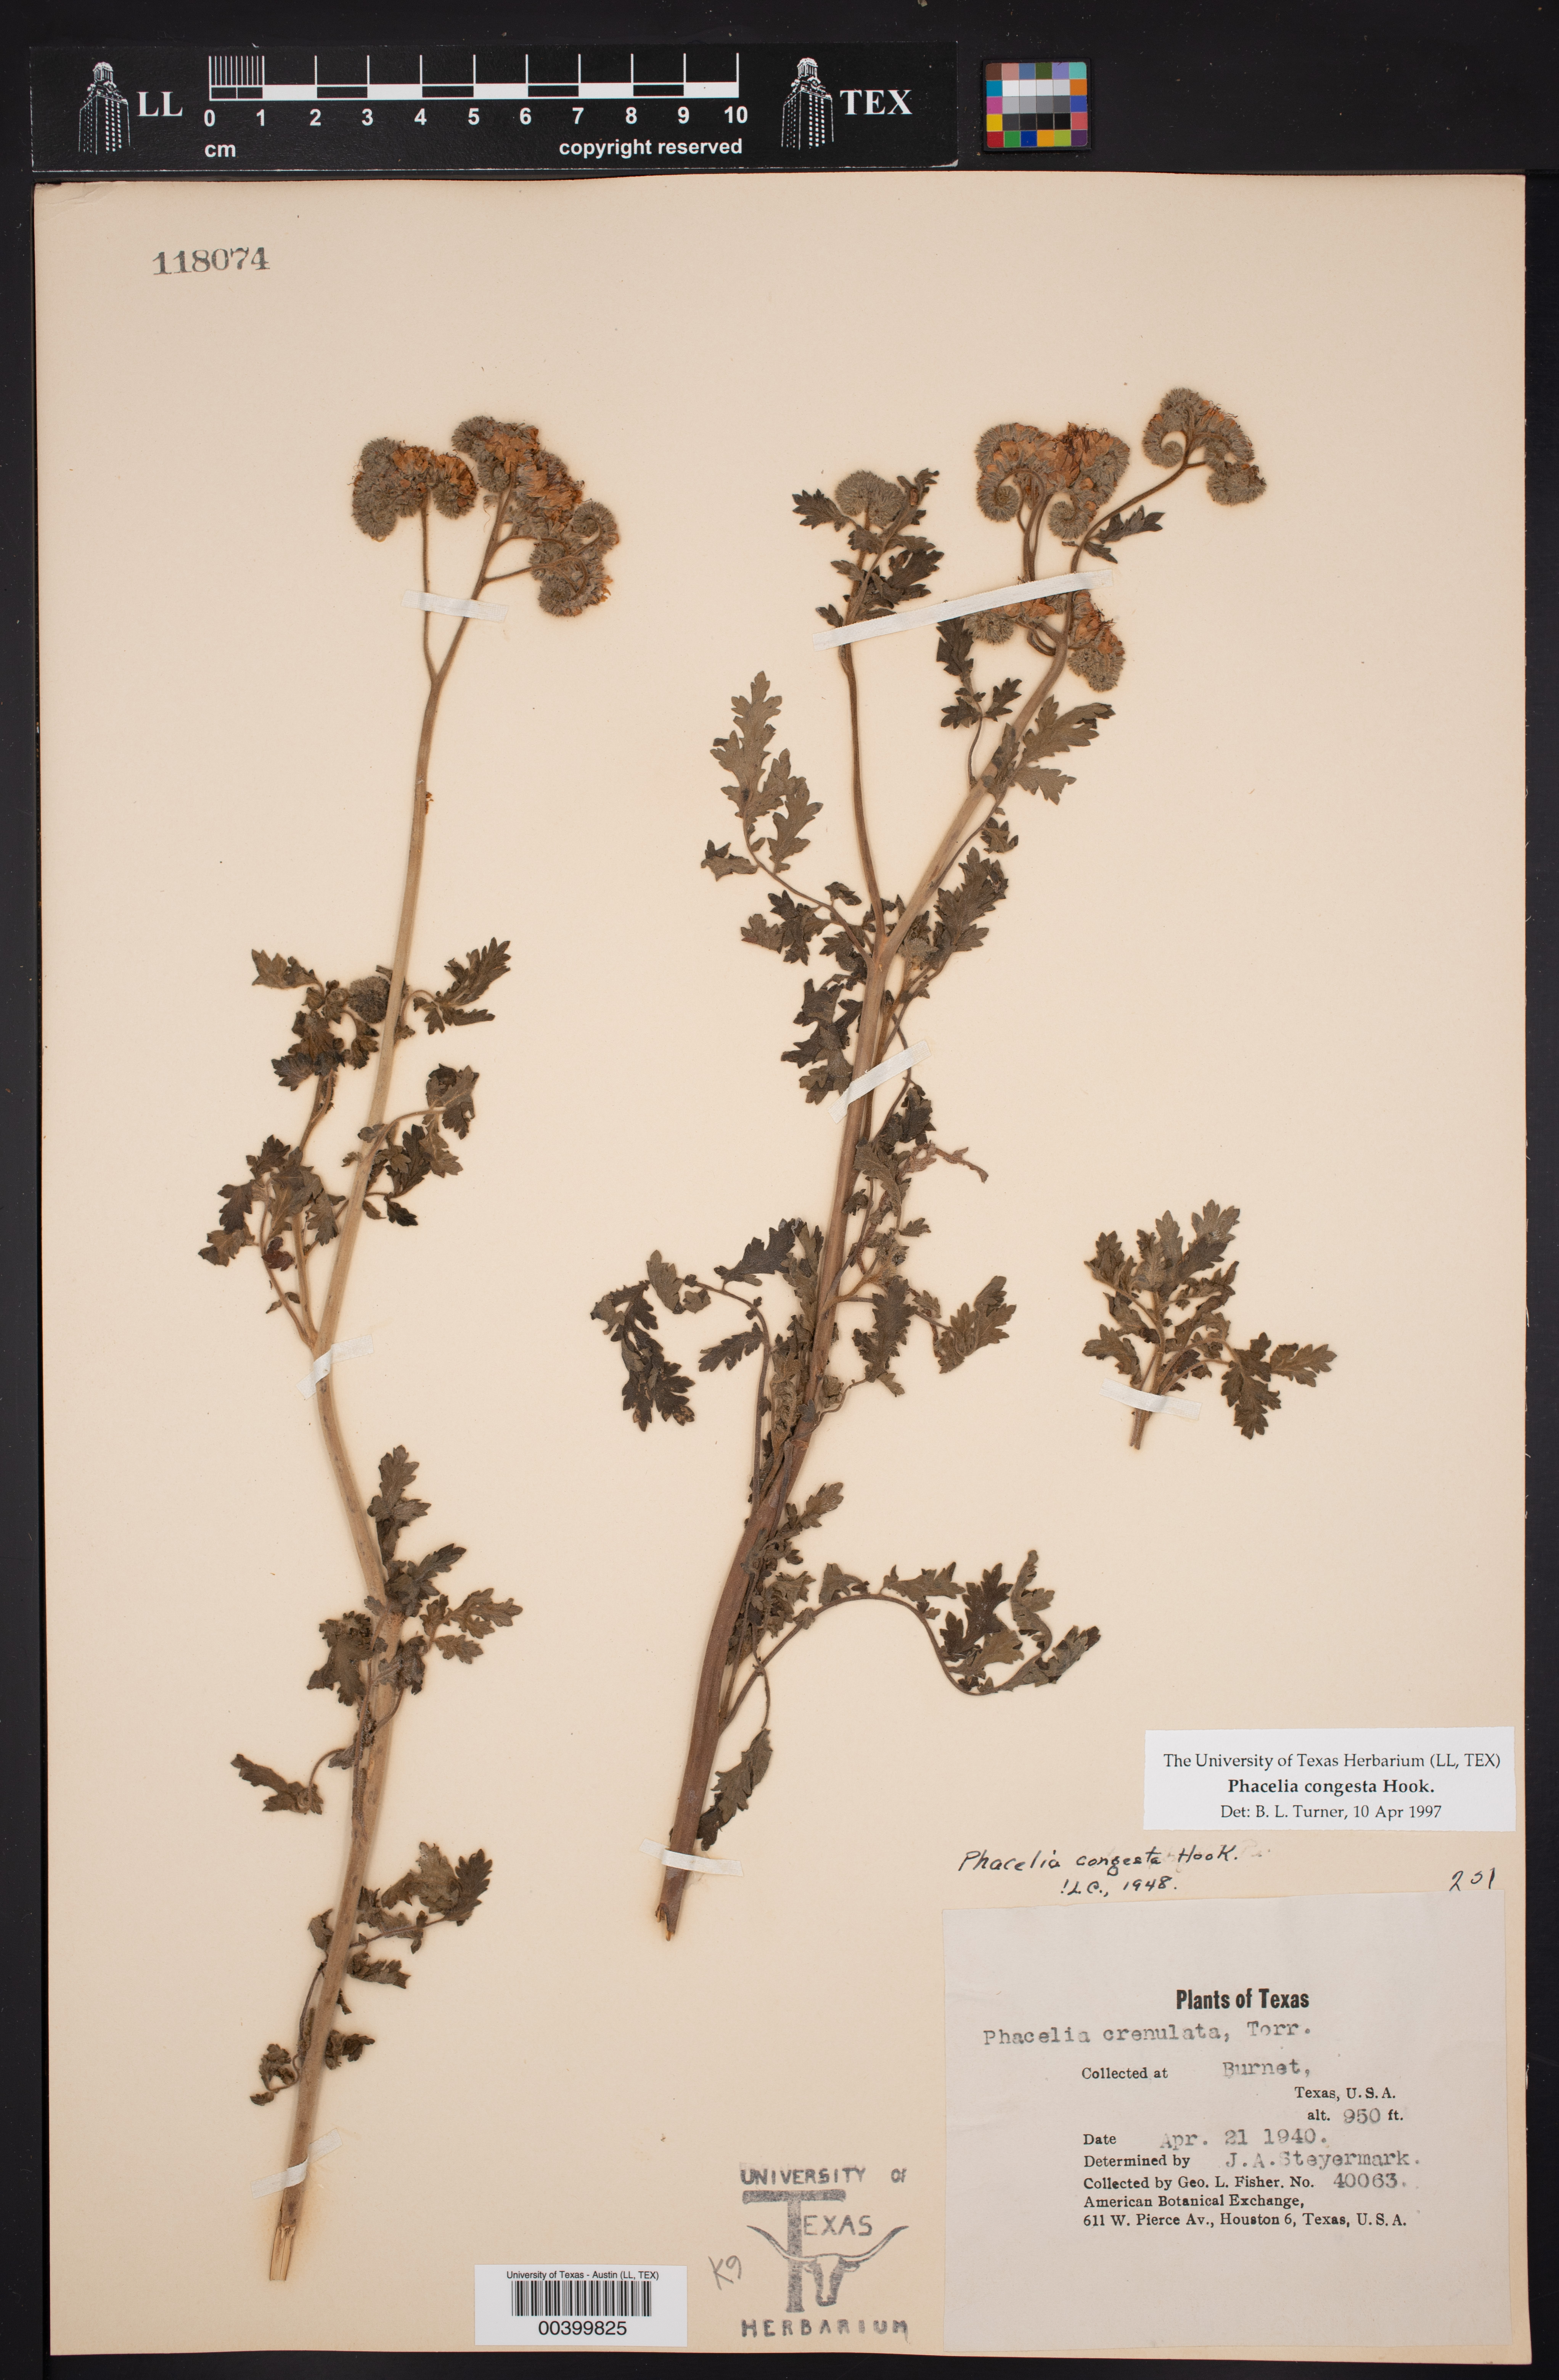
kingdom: Plantae
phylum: Tracheophyta
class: Magnoliopsida
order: Boraginales
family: Hydrophyllaceae
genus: Phacelia
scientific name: Phacelia congesta
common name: Blue curls
